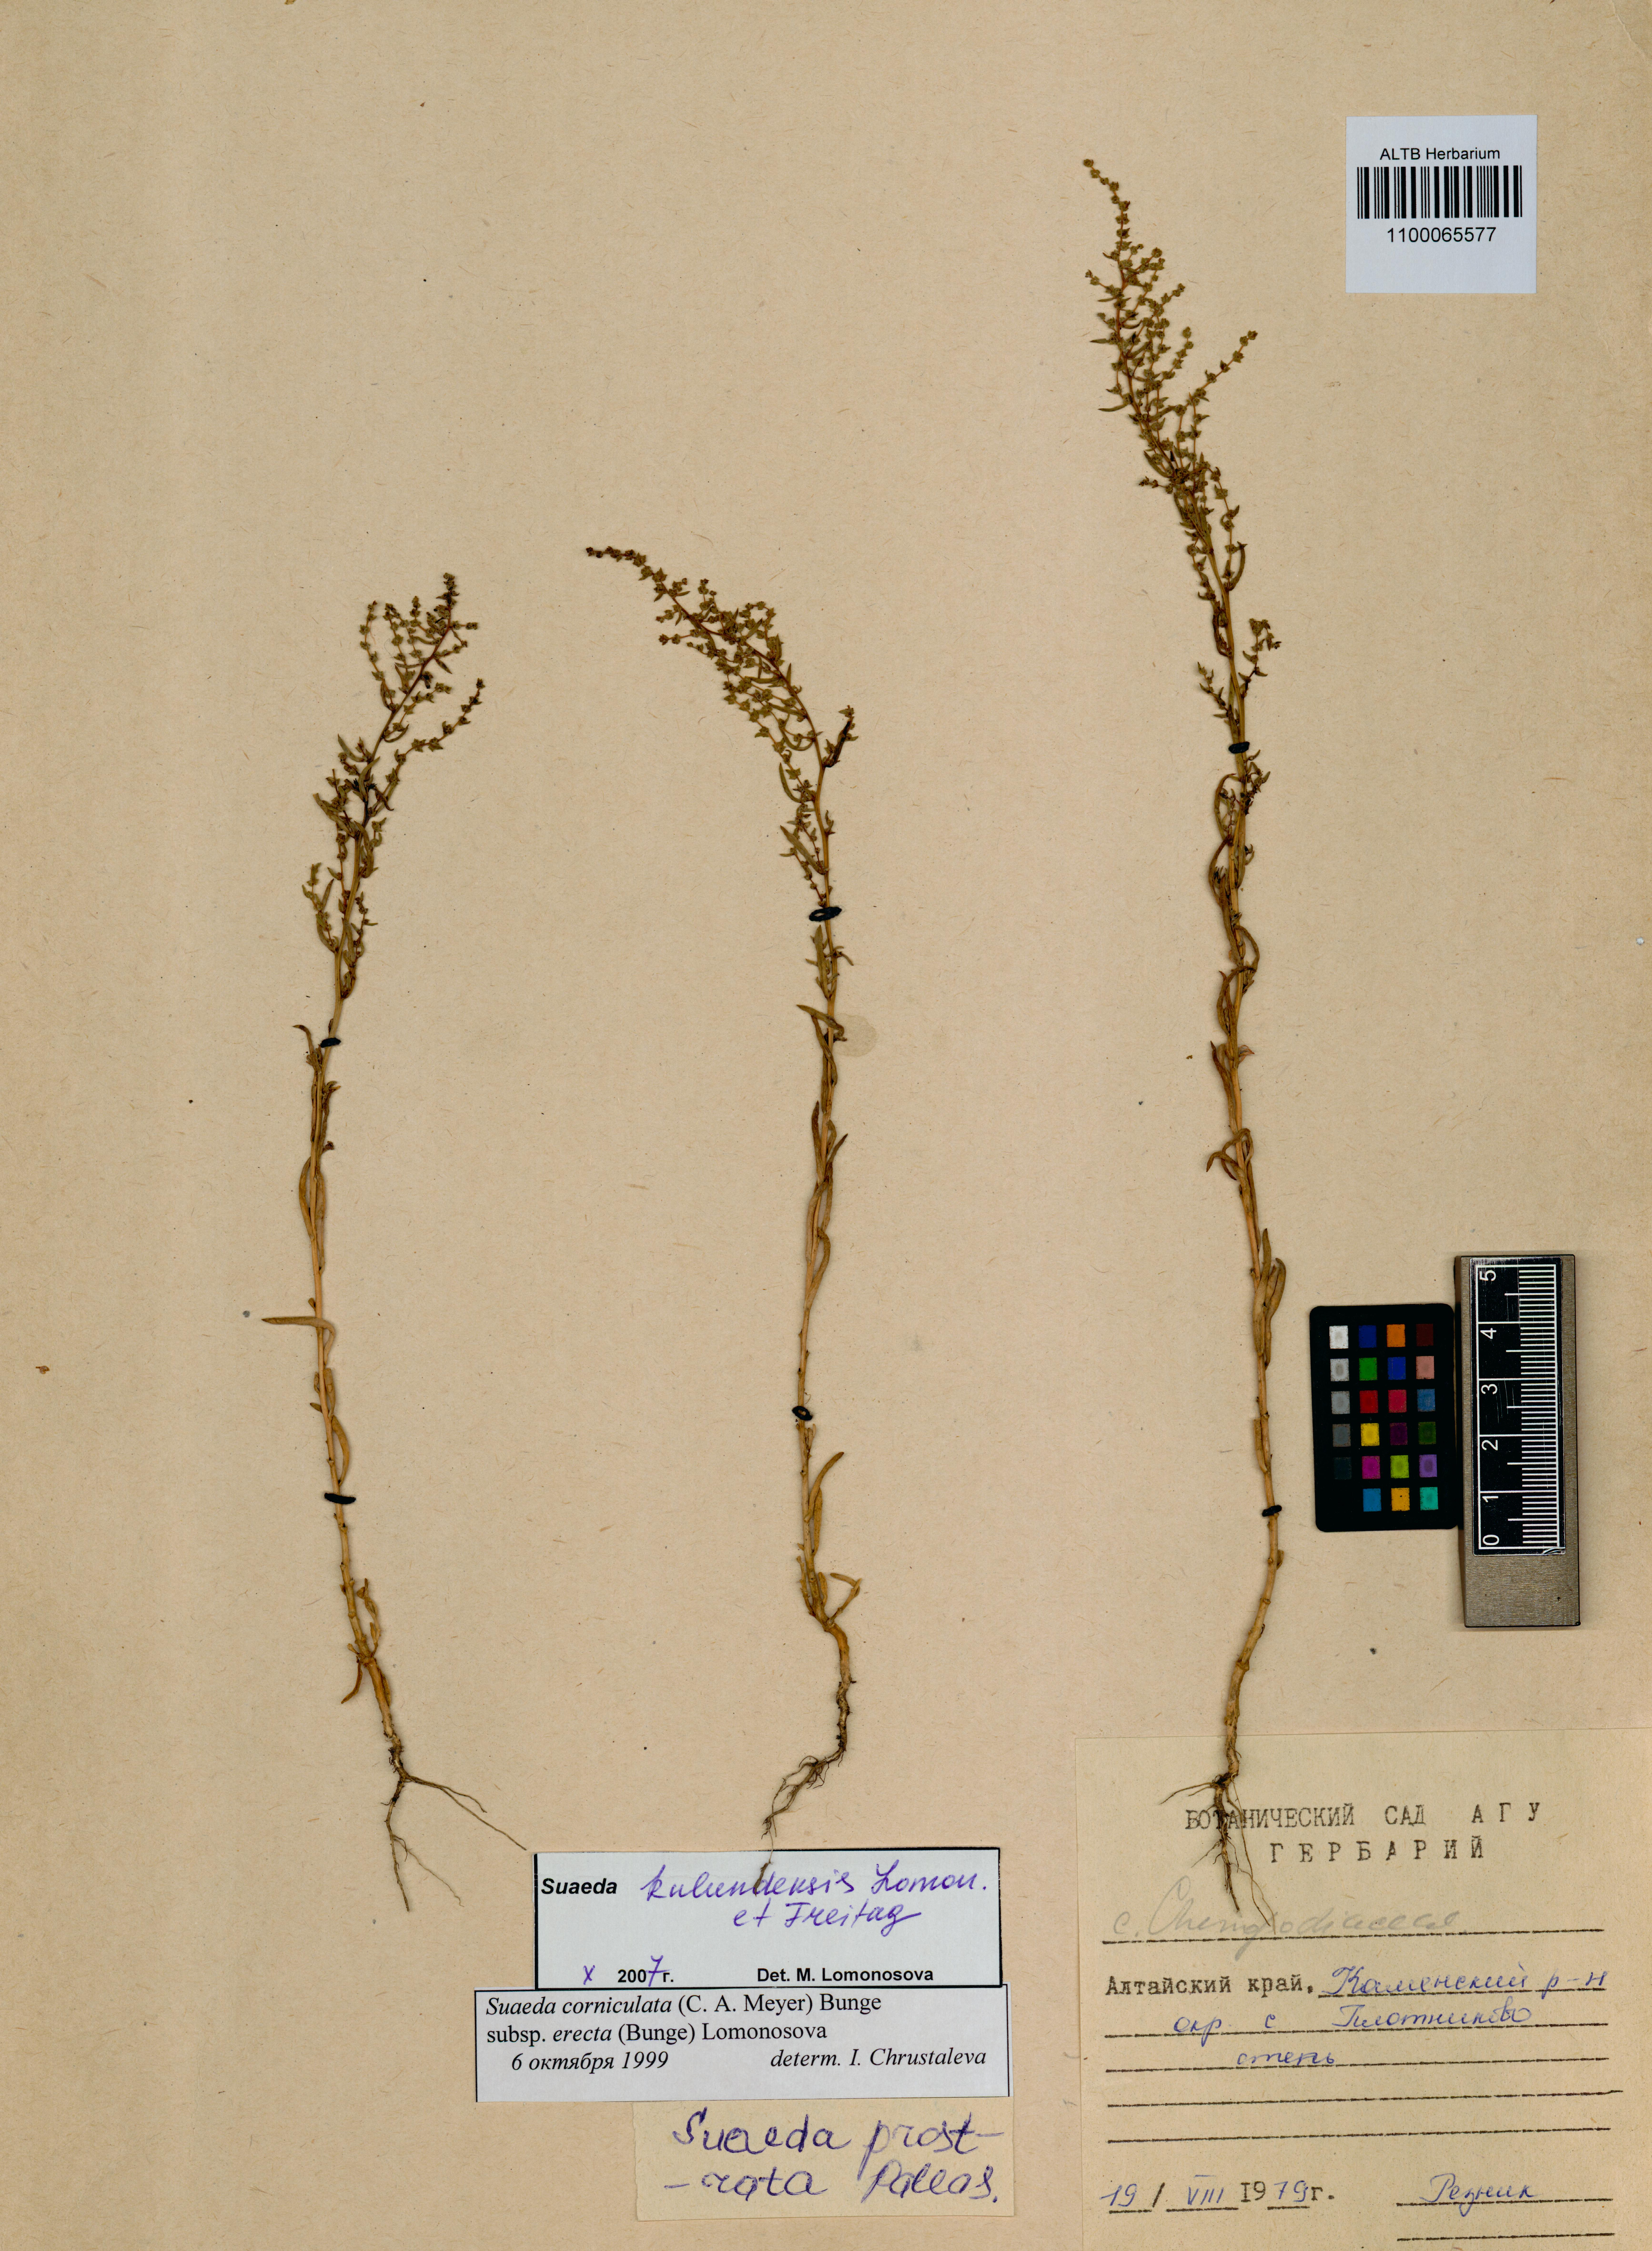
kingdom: Plantae
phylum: Tracheophyta
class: Magnoliopsida
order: Caryophyllales
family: Amaranthaceae
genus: Suaeda
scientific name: Suaeda kulundensis
